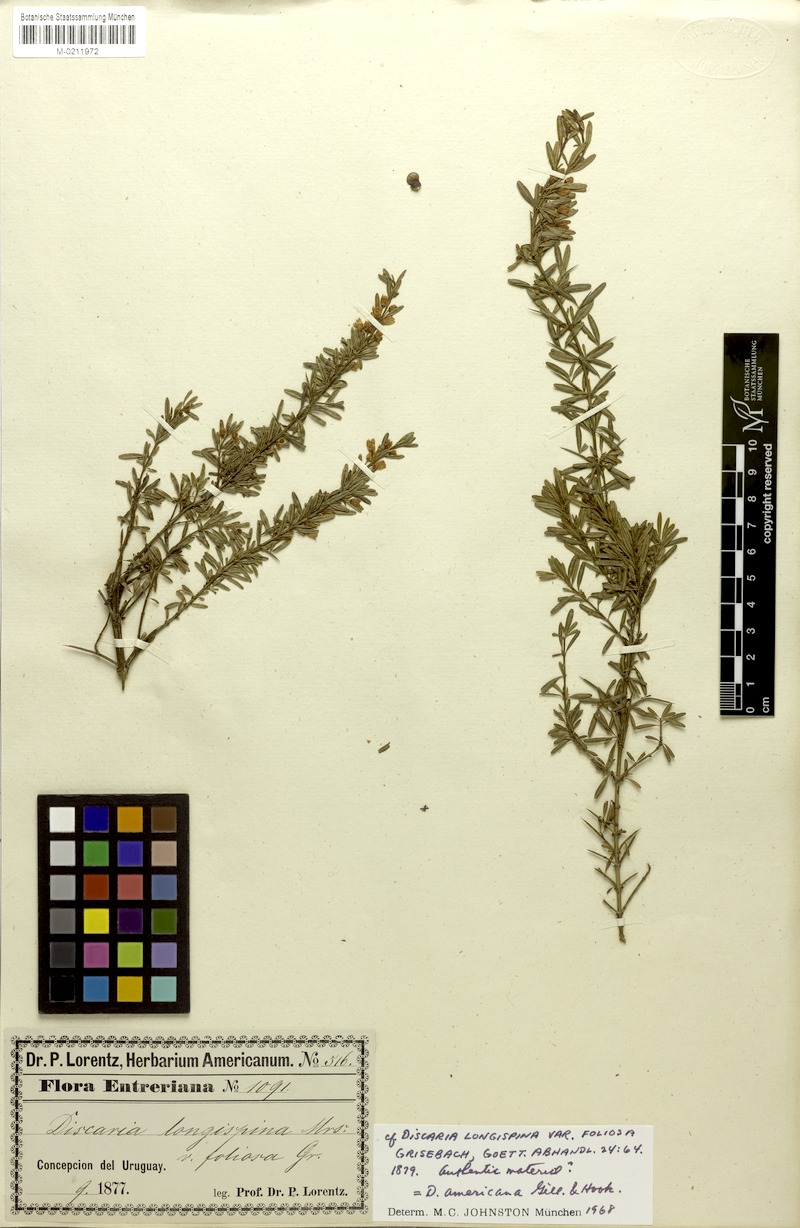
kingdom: Plantae
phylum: Tracheophyta
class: Magnoliopsida
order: Rosales
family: Rhamnaceae
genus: Discaria
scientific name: Discaria americana
